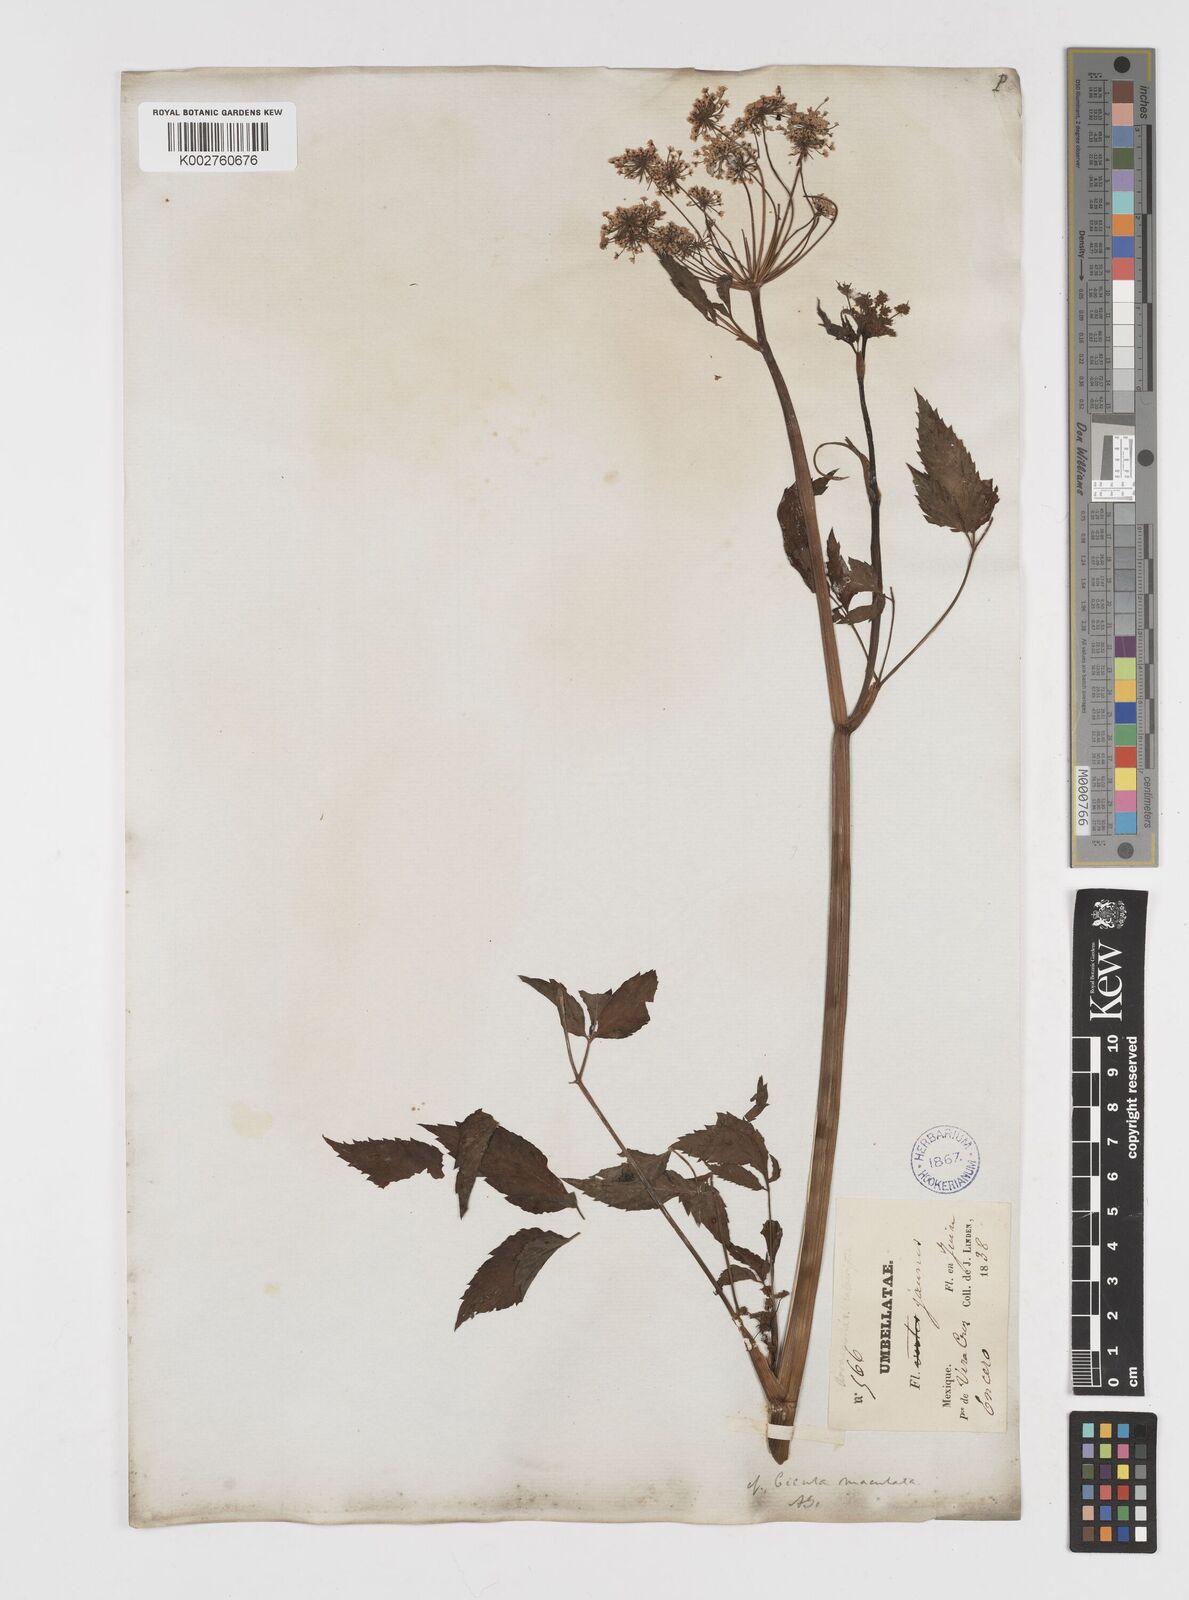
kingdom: Plantae
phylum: Tracheophyta
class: Magnoliopsida
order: Apiales
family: Apiaceae
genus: Cicuta
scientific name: Cicuta douglasii
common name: Western water-hemlock
